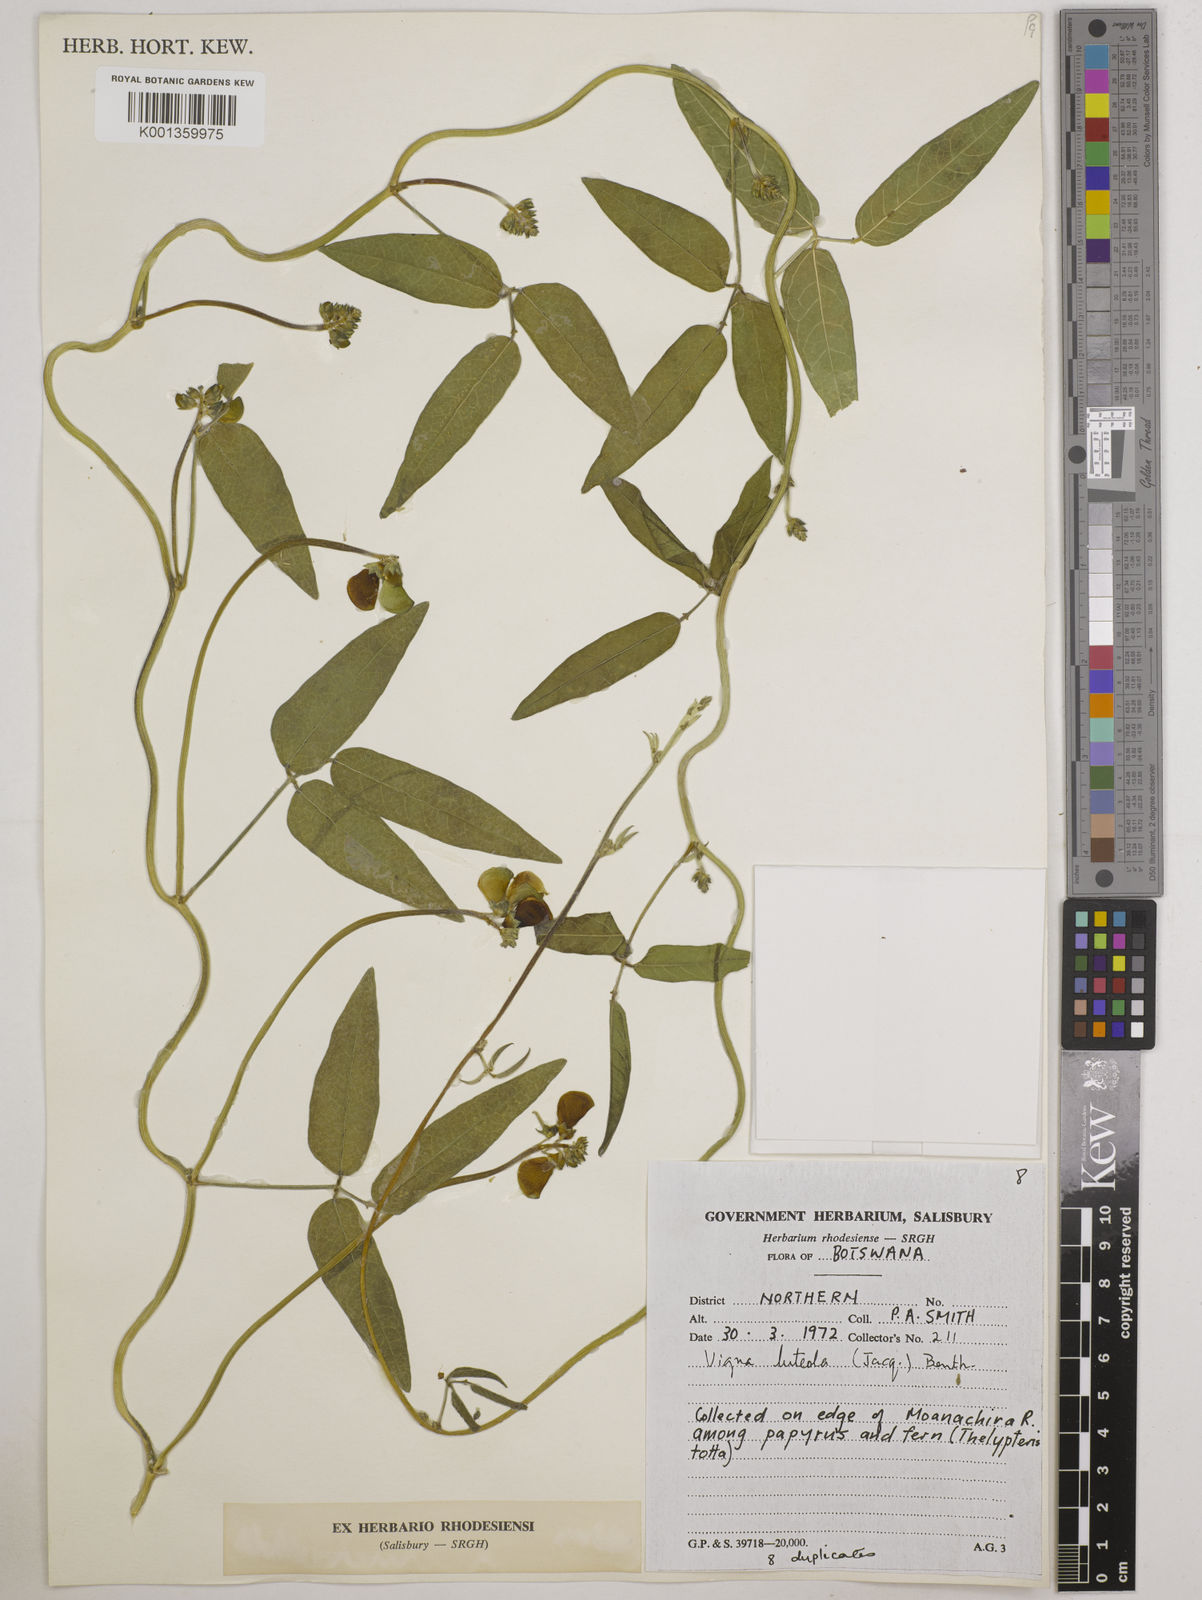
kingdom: Plantae
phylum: Tracheophyta
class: Magnoliopsida
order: Fabales
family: Fabaceae
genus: Vigna
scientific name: Vigna luteola
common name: Hairypod cowpea
